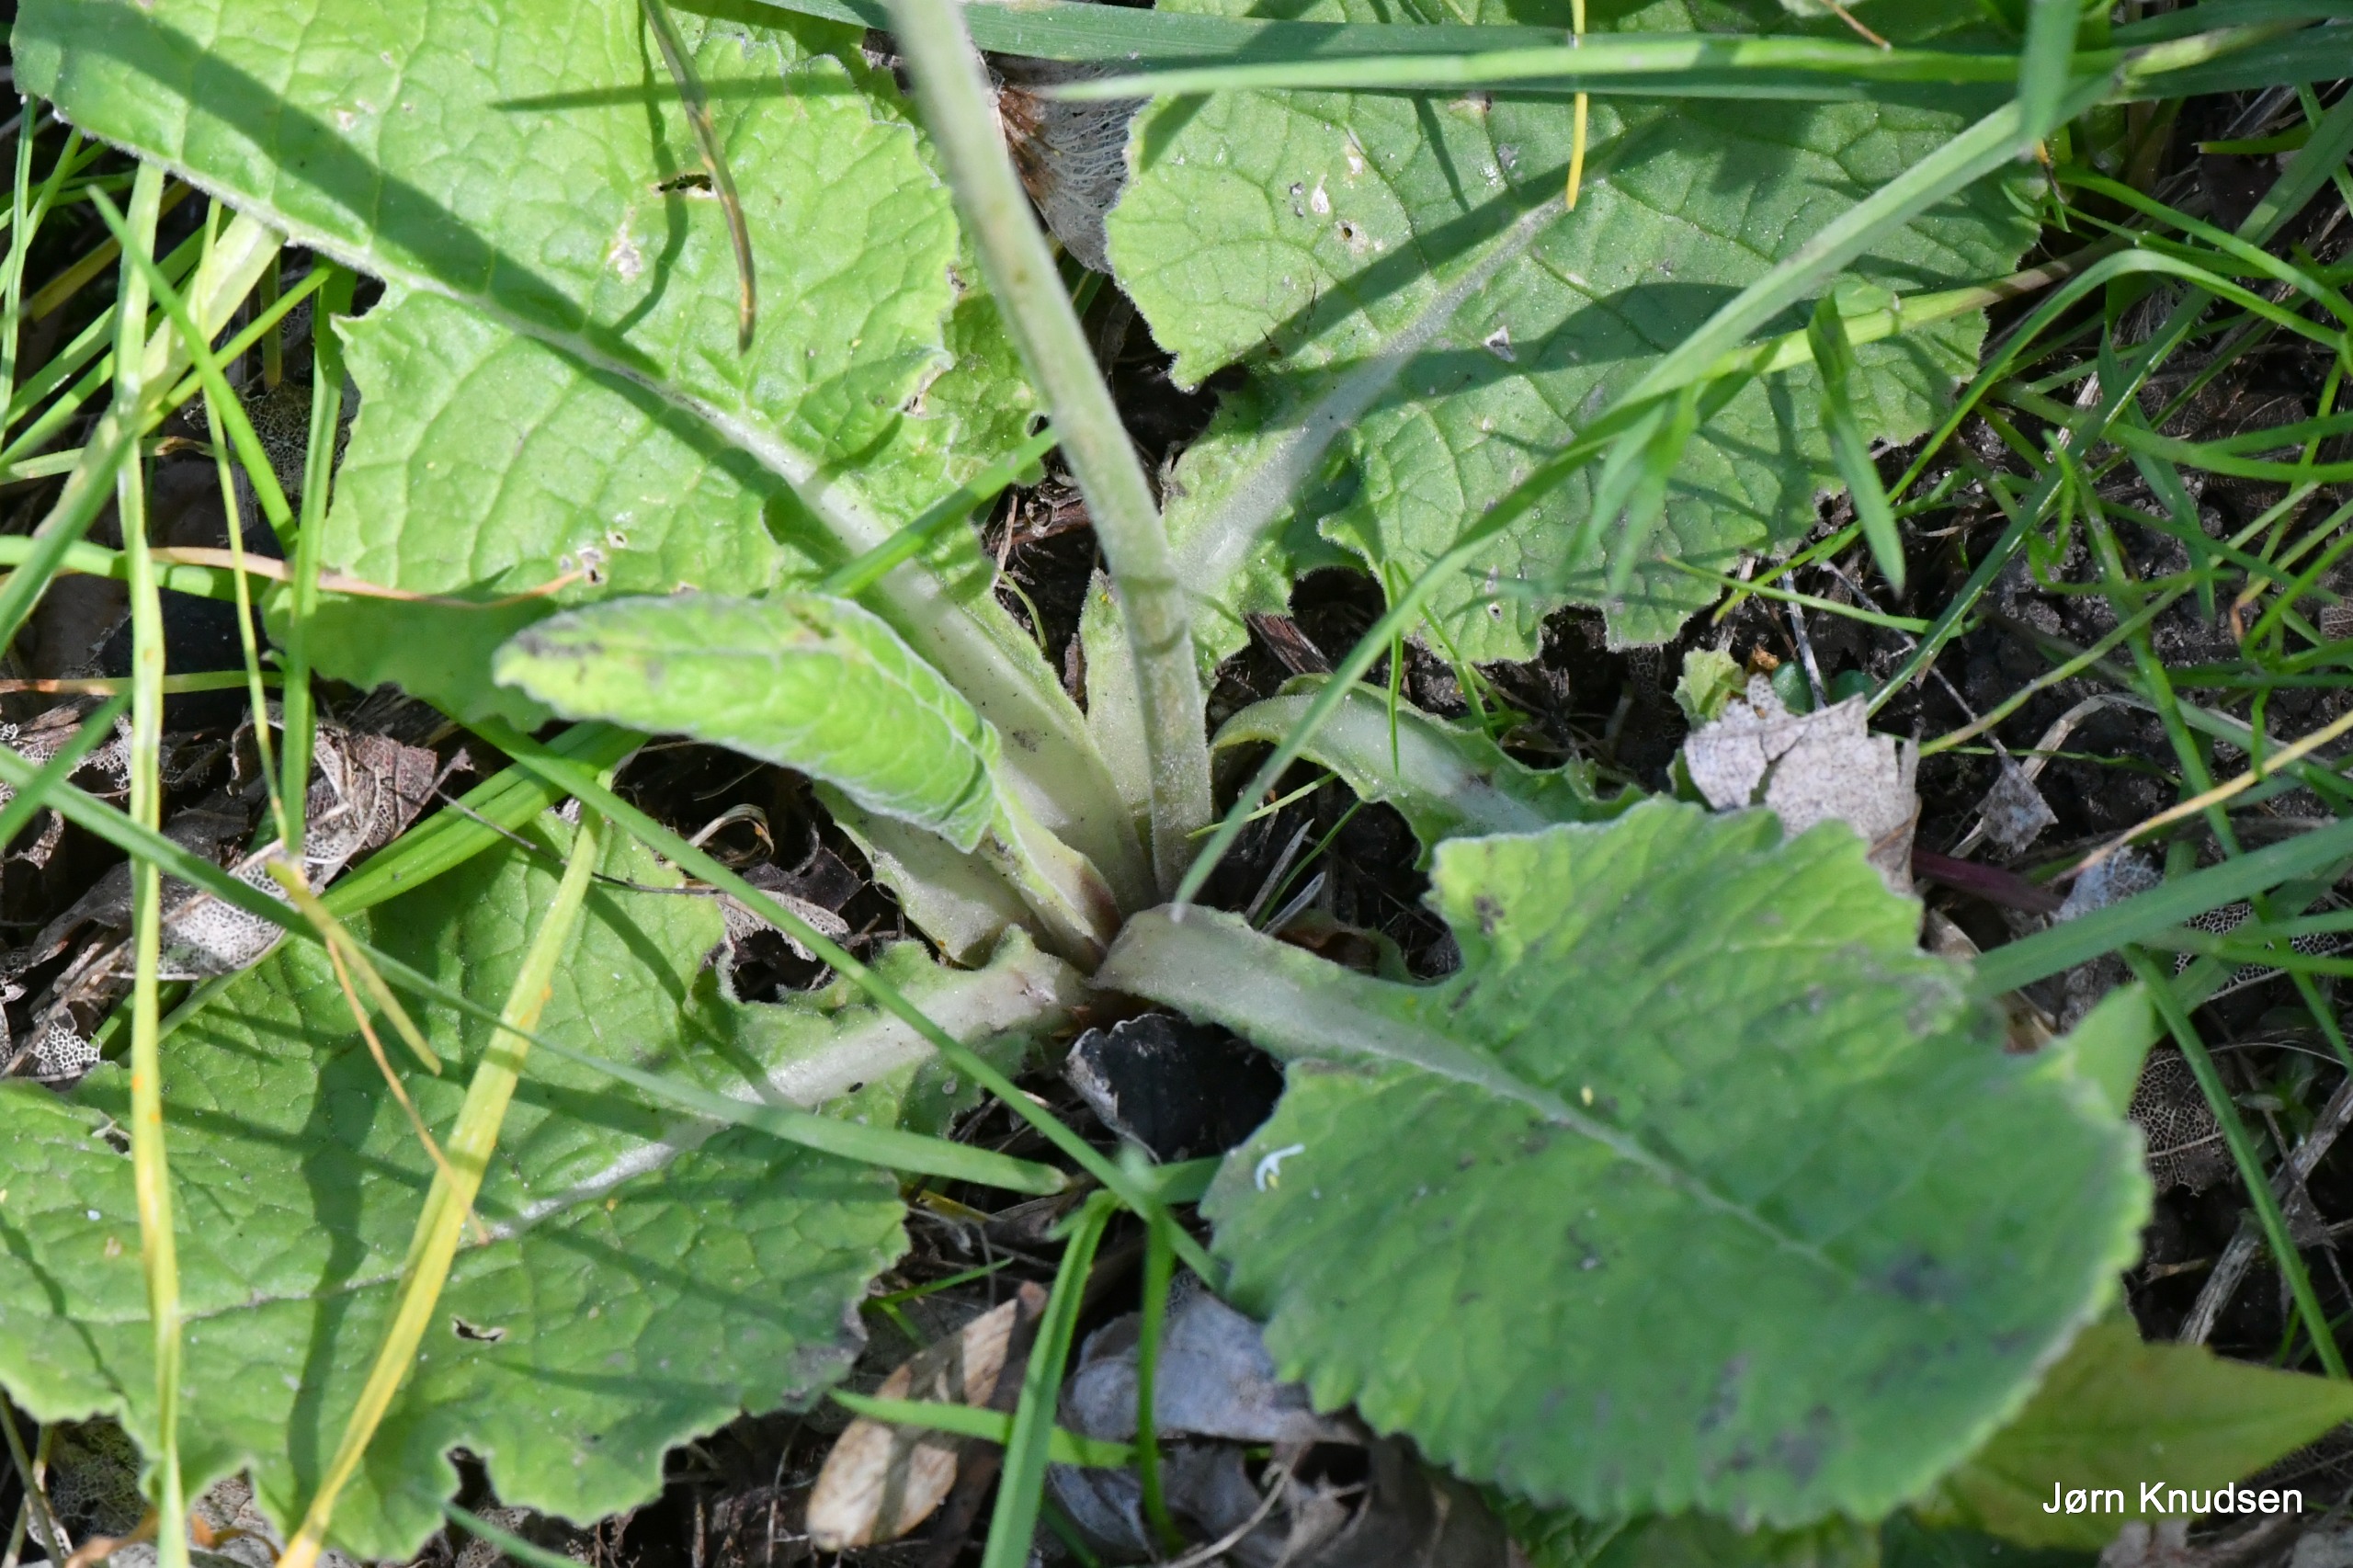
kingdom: Plantae
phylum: Tracheophyta
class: Magnoliopsida
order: Ericales
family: Primulaceae
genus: Primula
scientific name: Primula veris
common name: Hulkravet kodriver
